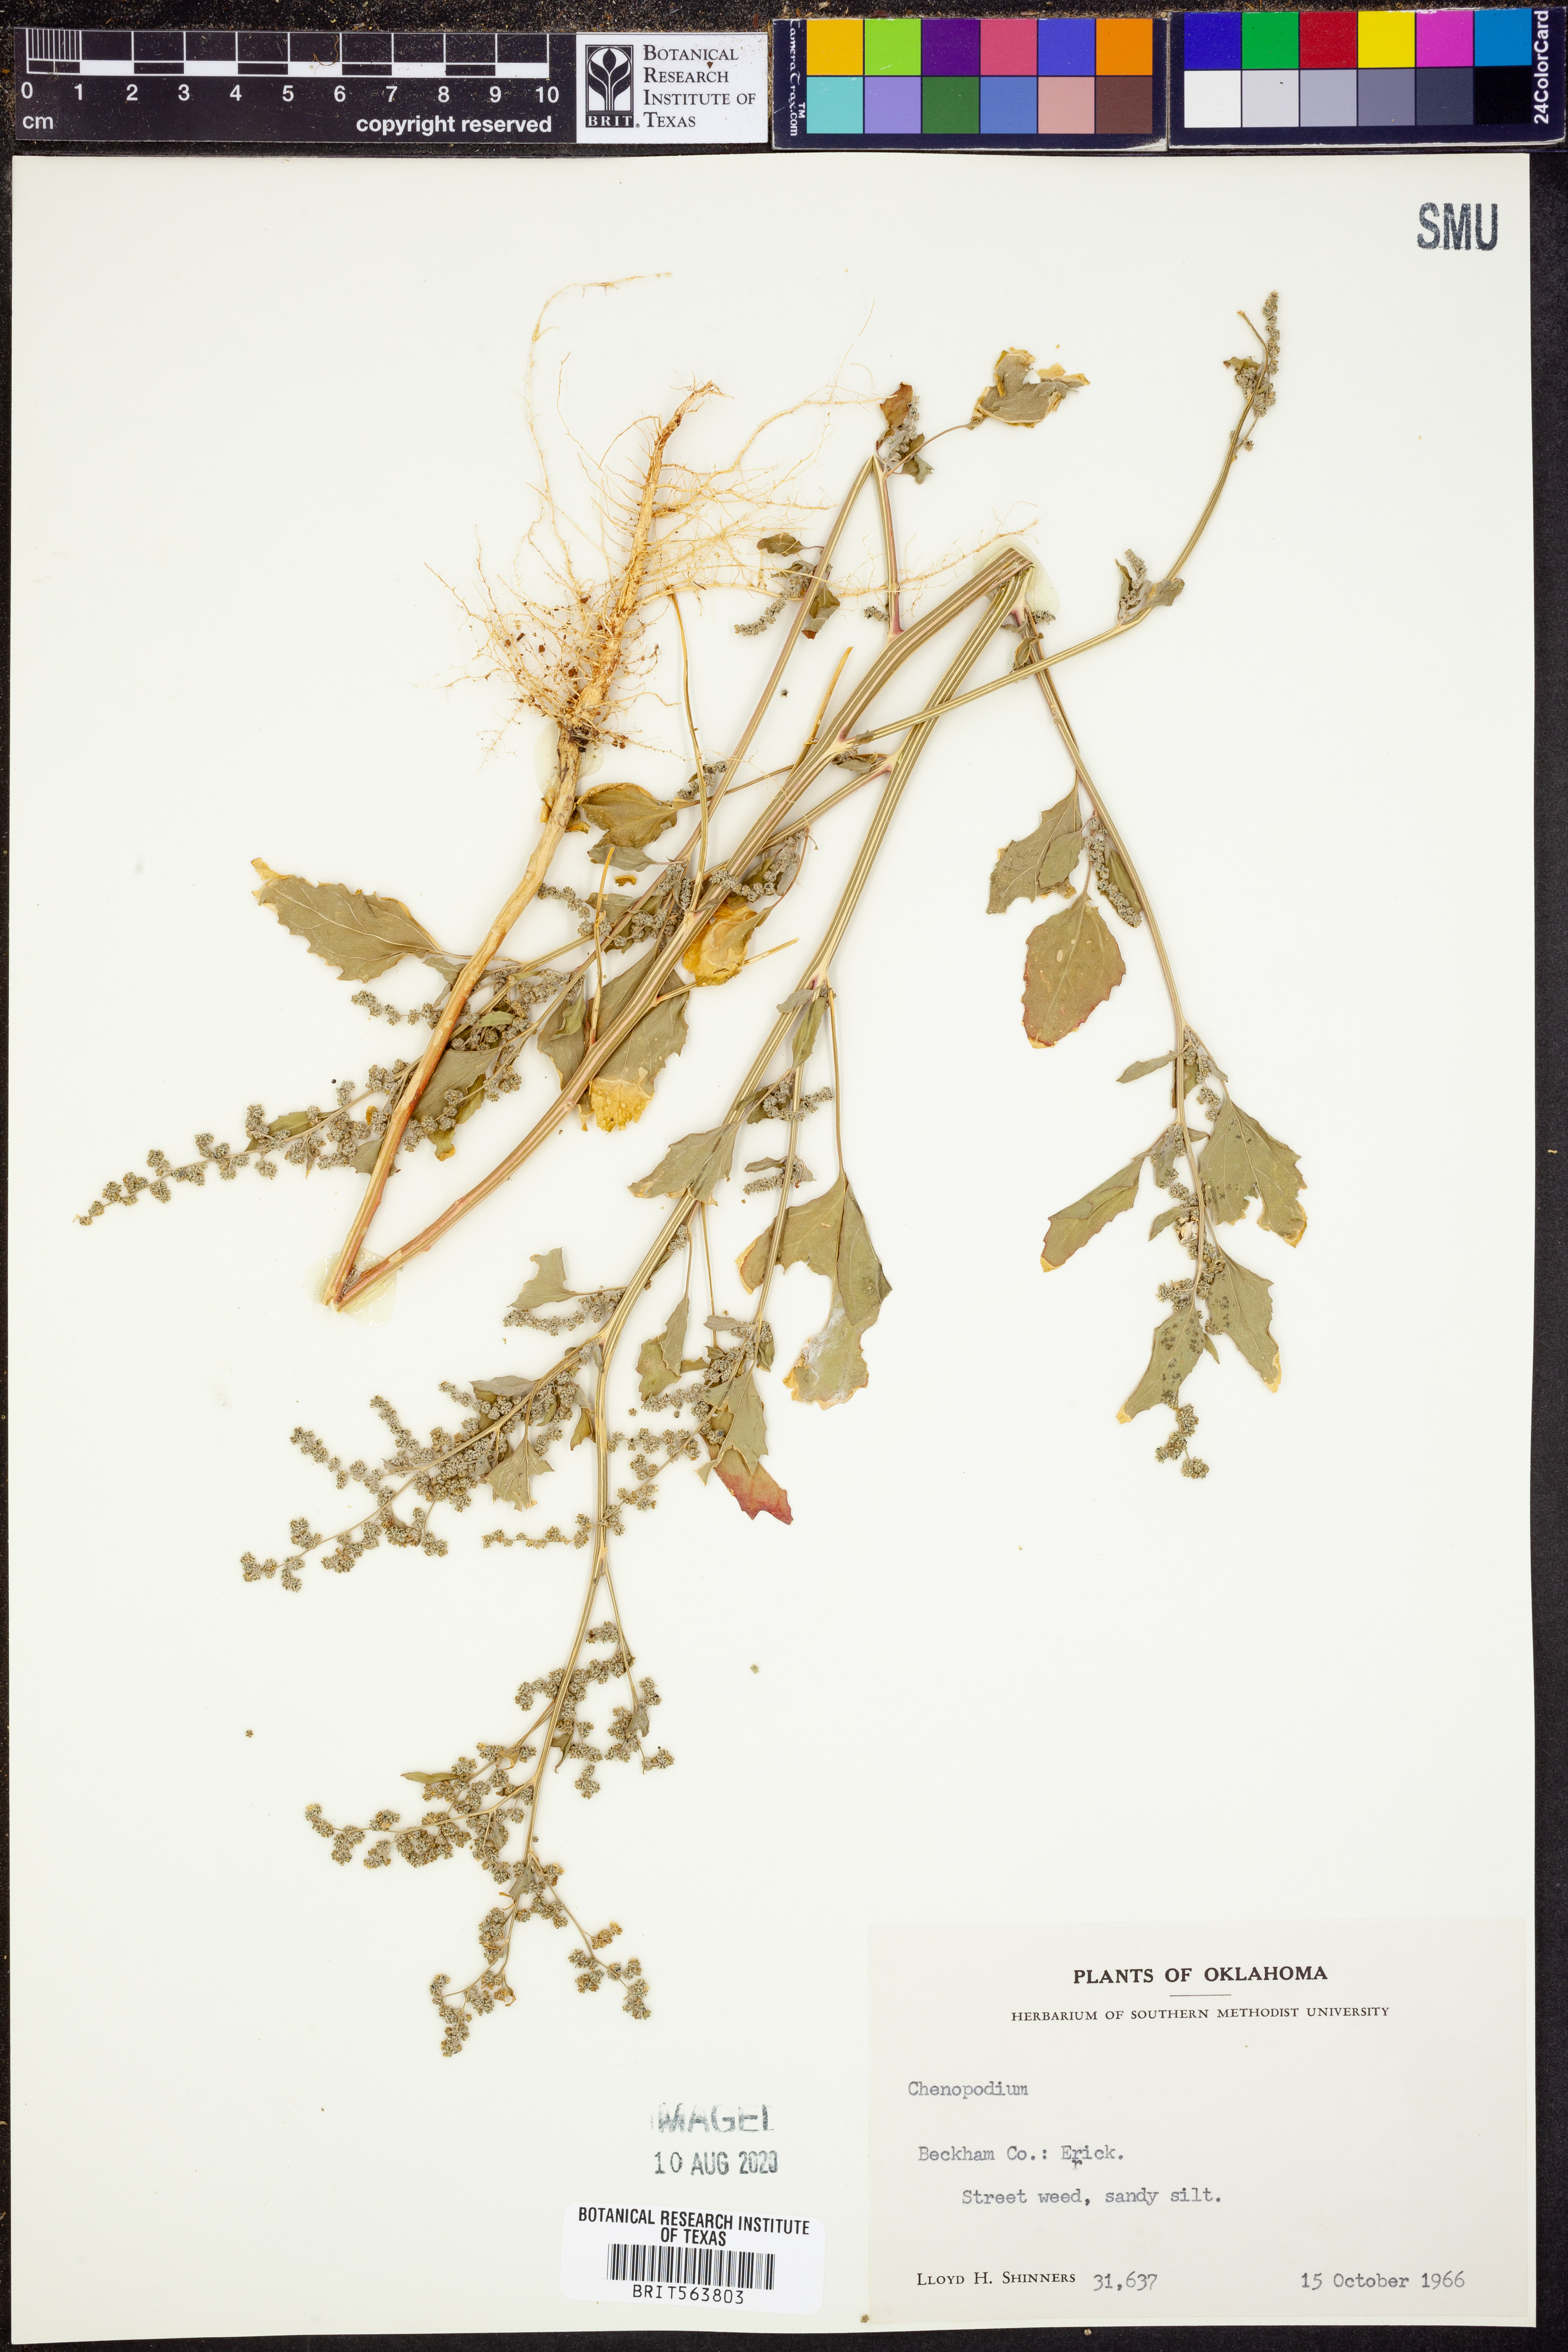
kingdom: Plantae
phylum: Tracheophyta
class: Magnoliopsida
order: Caryophyllales
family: Amaranthaceae
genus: Chenopodium
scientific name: Chenopodium
